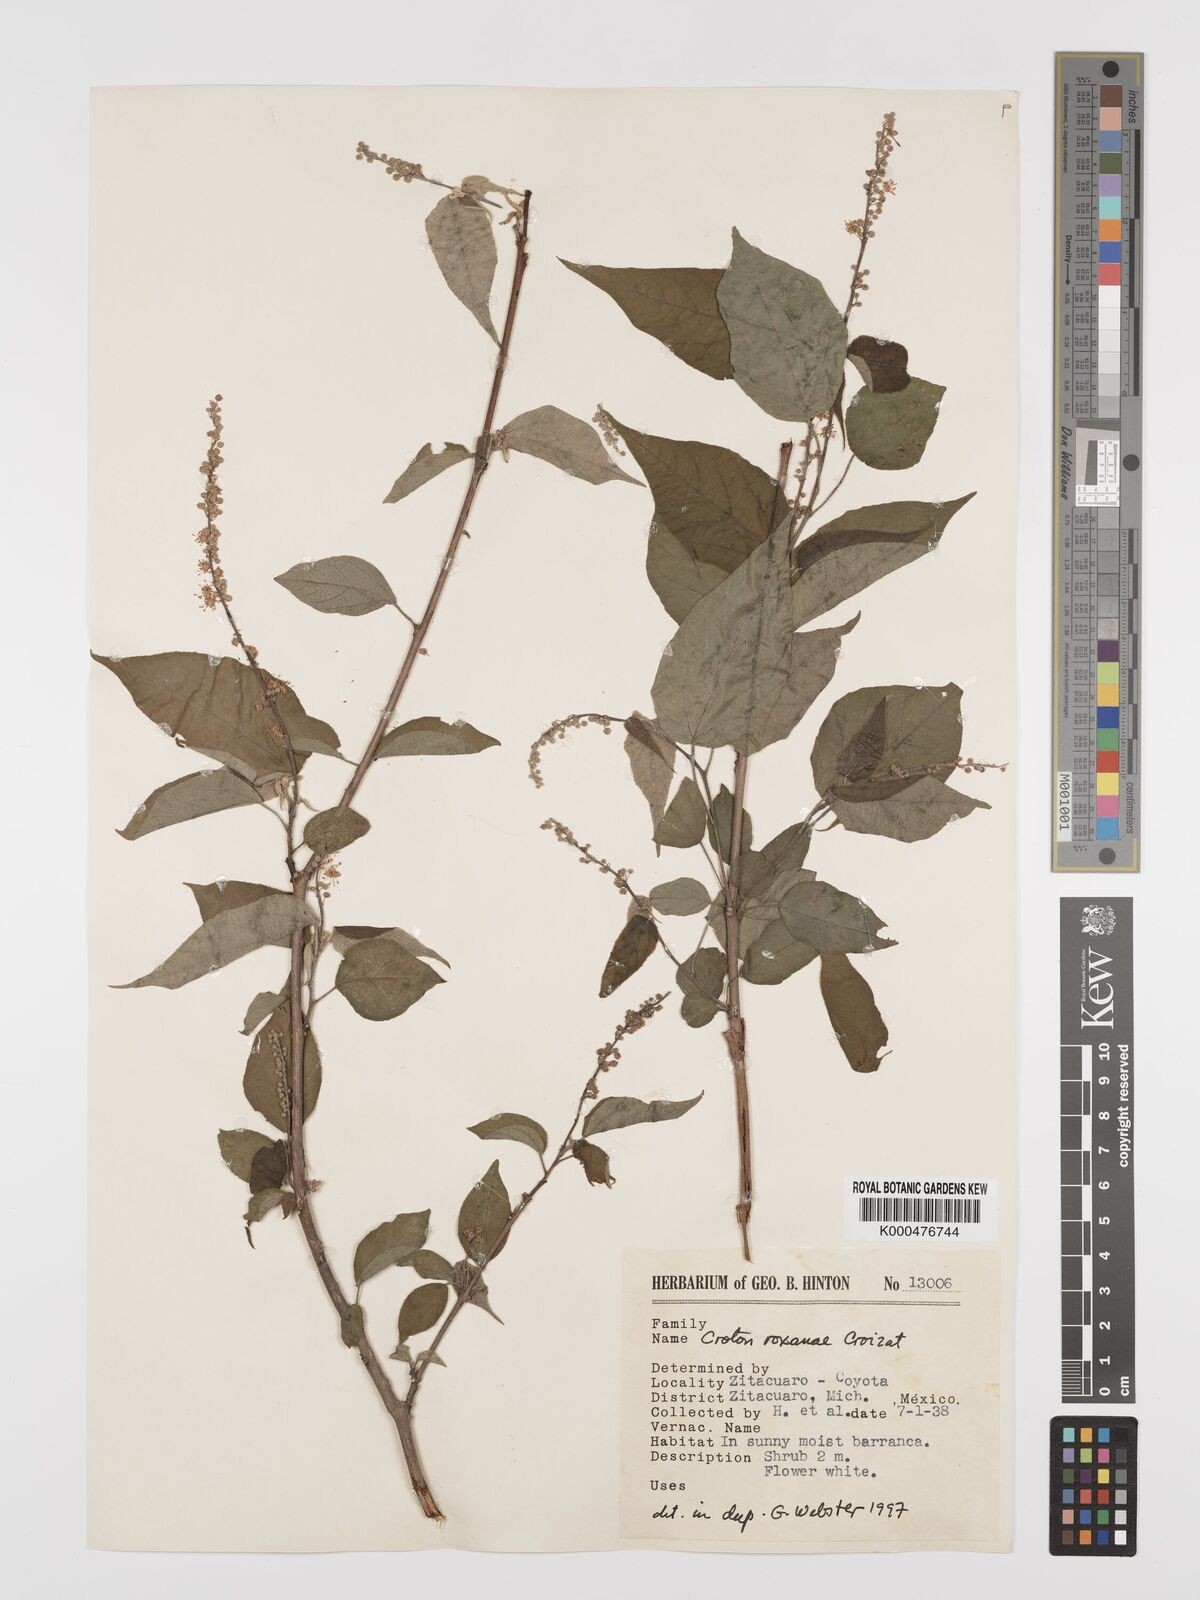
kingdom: Plantae
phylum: Tracheophyta
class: Magnoliopsida
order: Malpighiales
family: Euphorbiaceae
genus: Croton
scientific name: Croton
